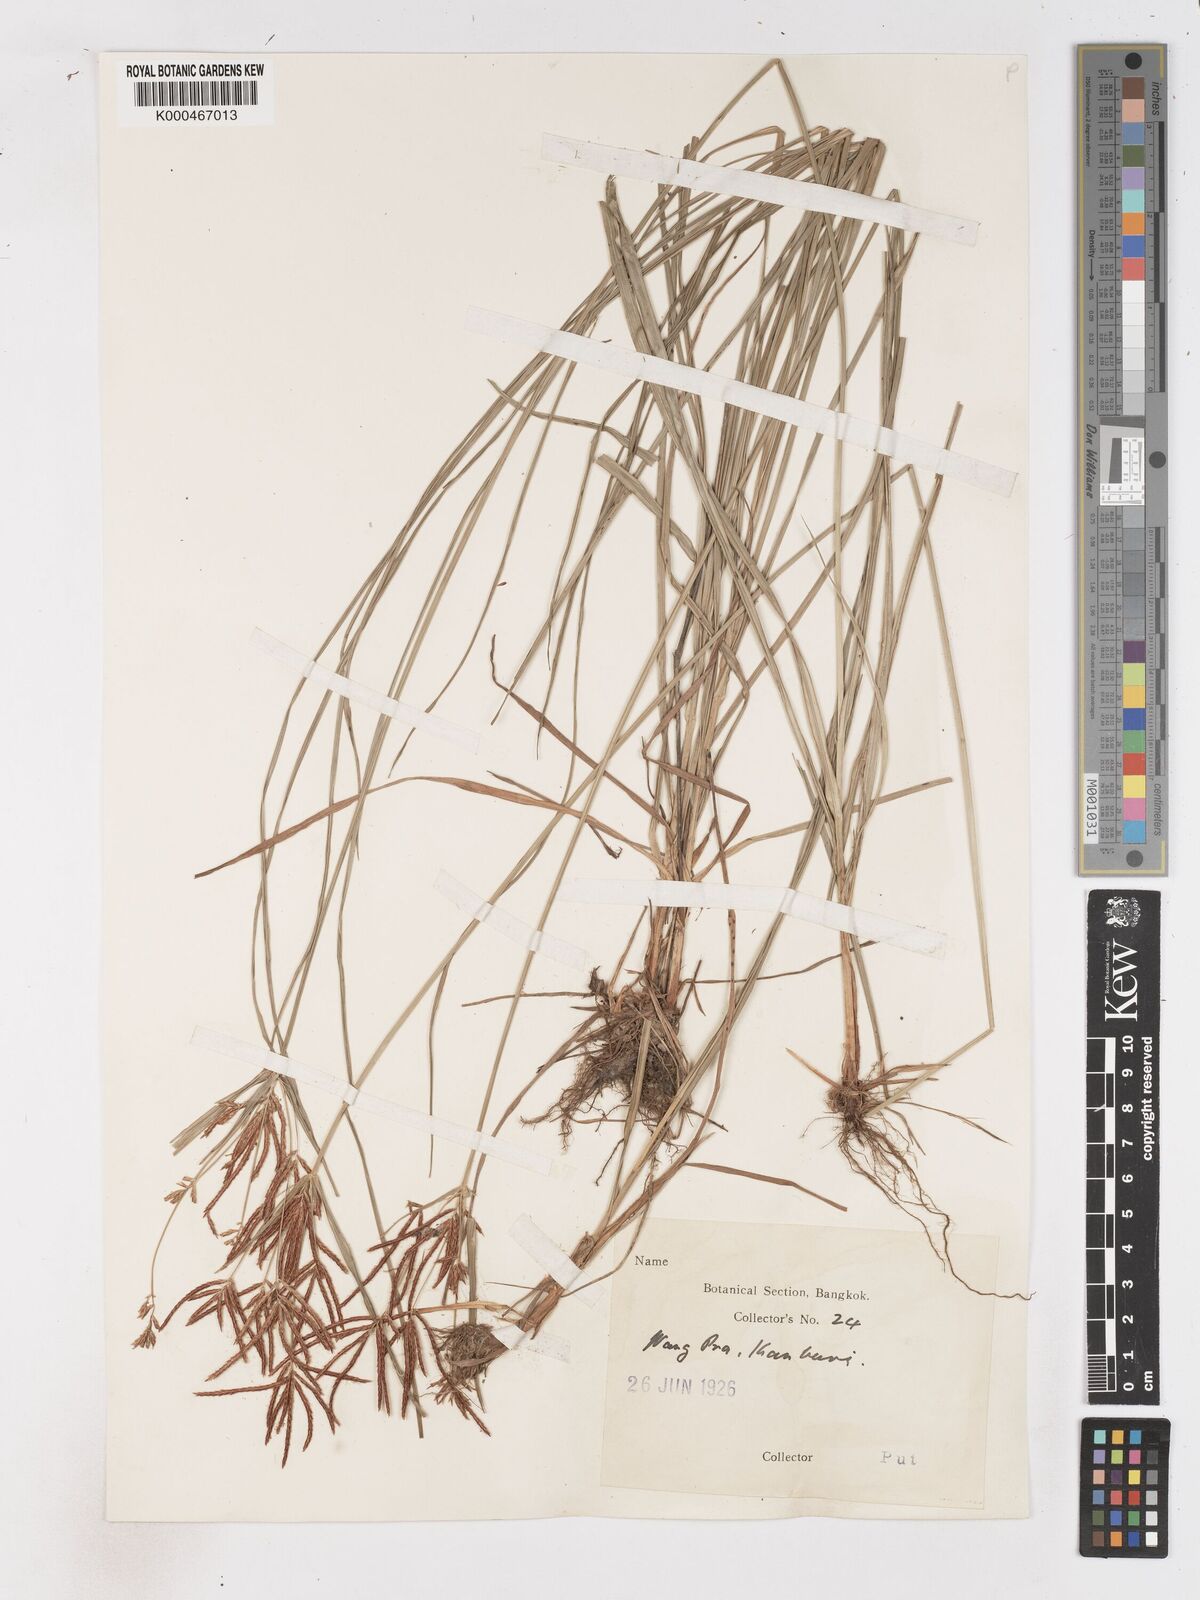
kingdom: Plantae
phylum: Tracheophyta
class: Liliopsida
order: Poales
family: Cyperaceae
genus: Cyperus
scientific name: Cyperus rotundus
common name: Nutgrass
